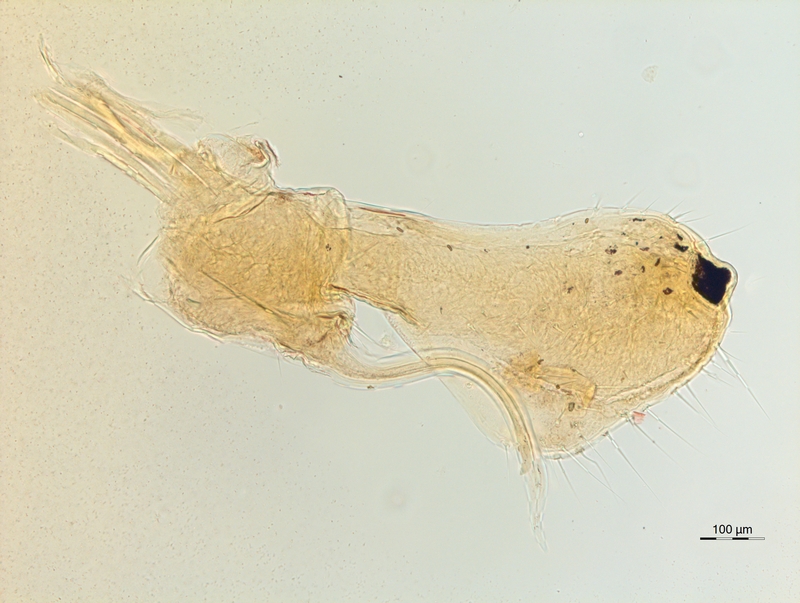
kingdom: Animalia
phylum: Arthropoda
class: Diplopoda
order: Chordeumatida
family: Chordeumatidae
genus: Orthochordeumella
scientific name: Orthochordeumella fulva
